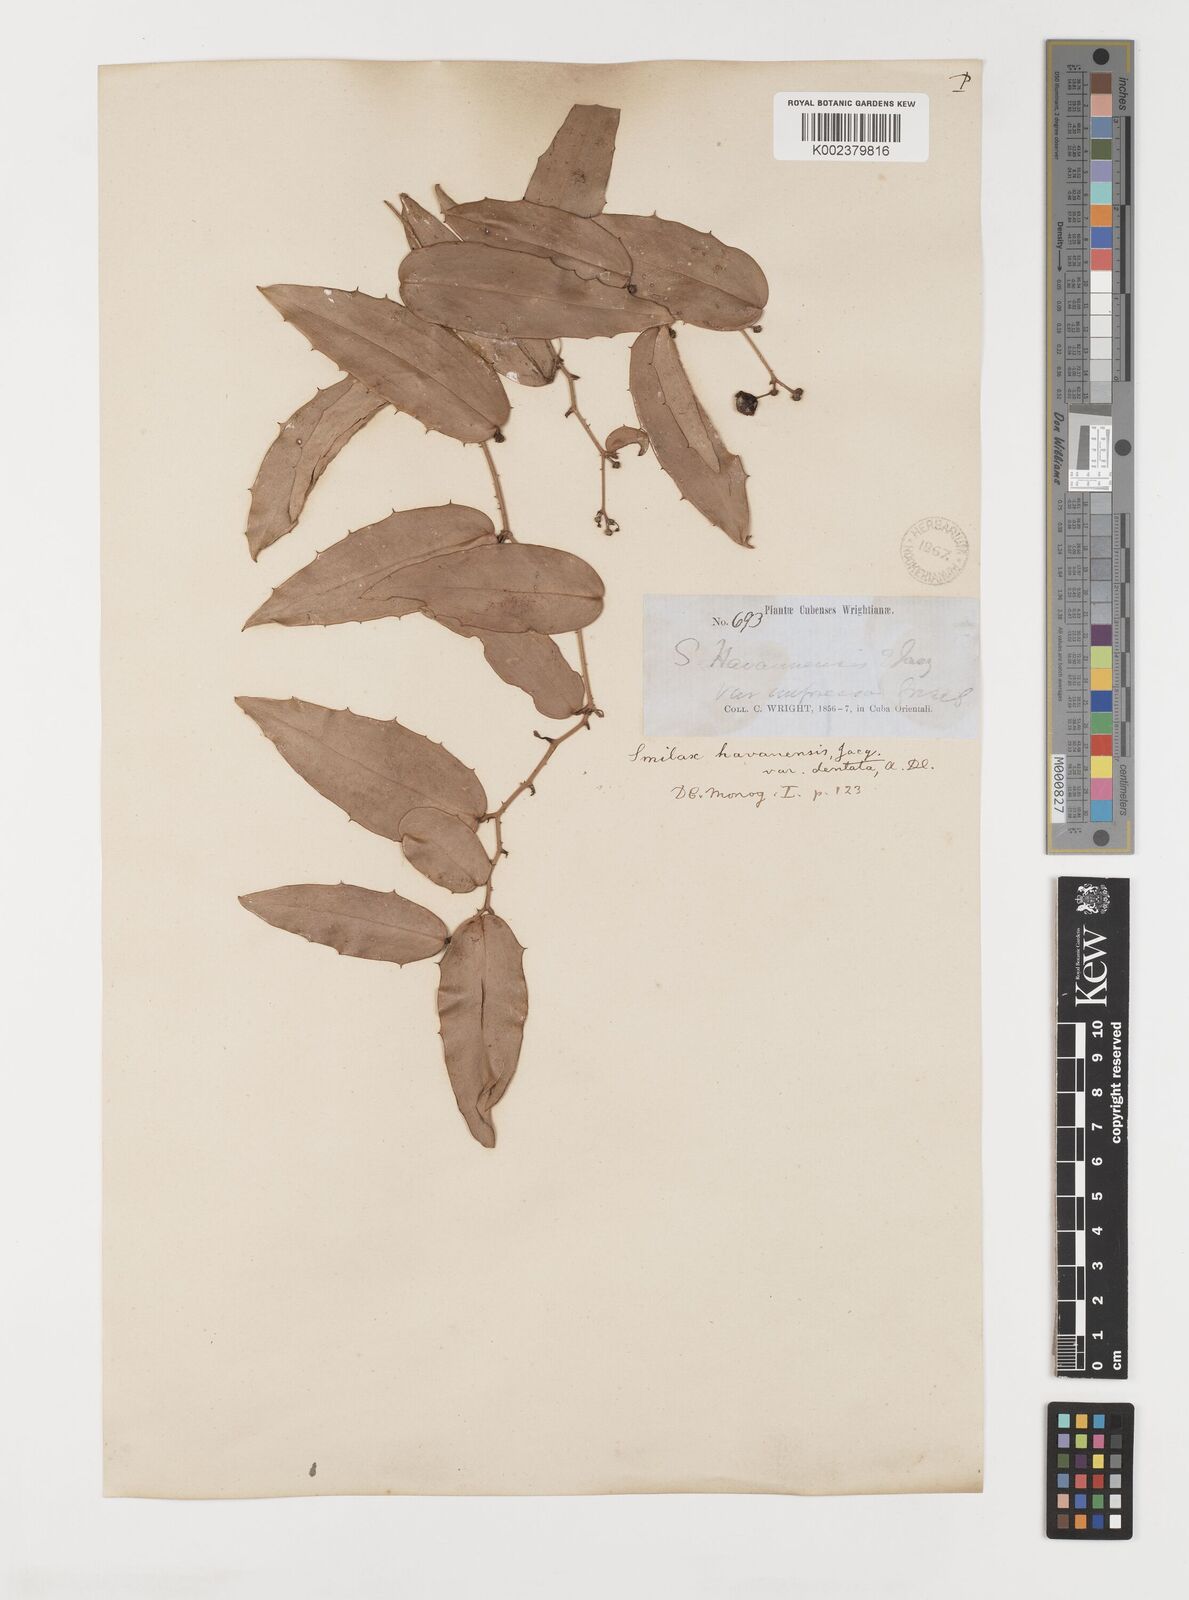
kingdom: Plantae
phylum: Tracheophyta
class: Liliopsida
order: Liliales
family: Smilacaceae
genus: Smilax
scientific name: Smilax populnea
